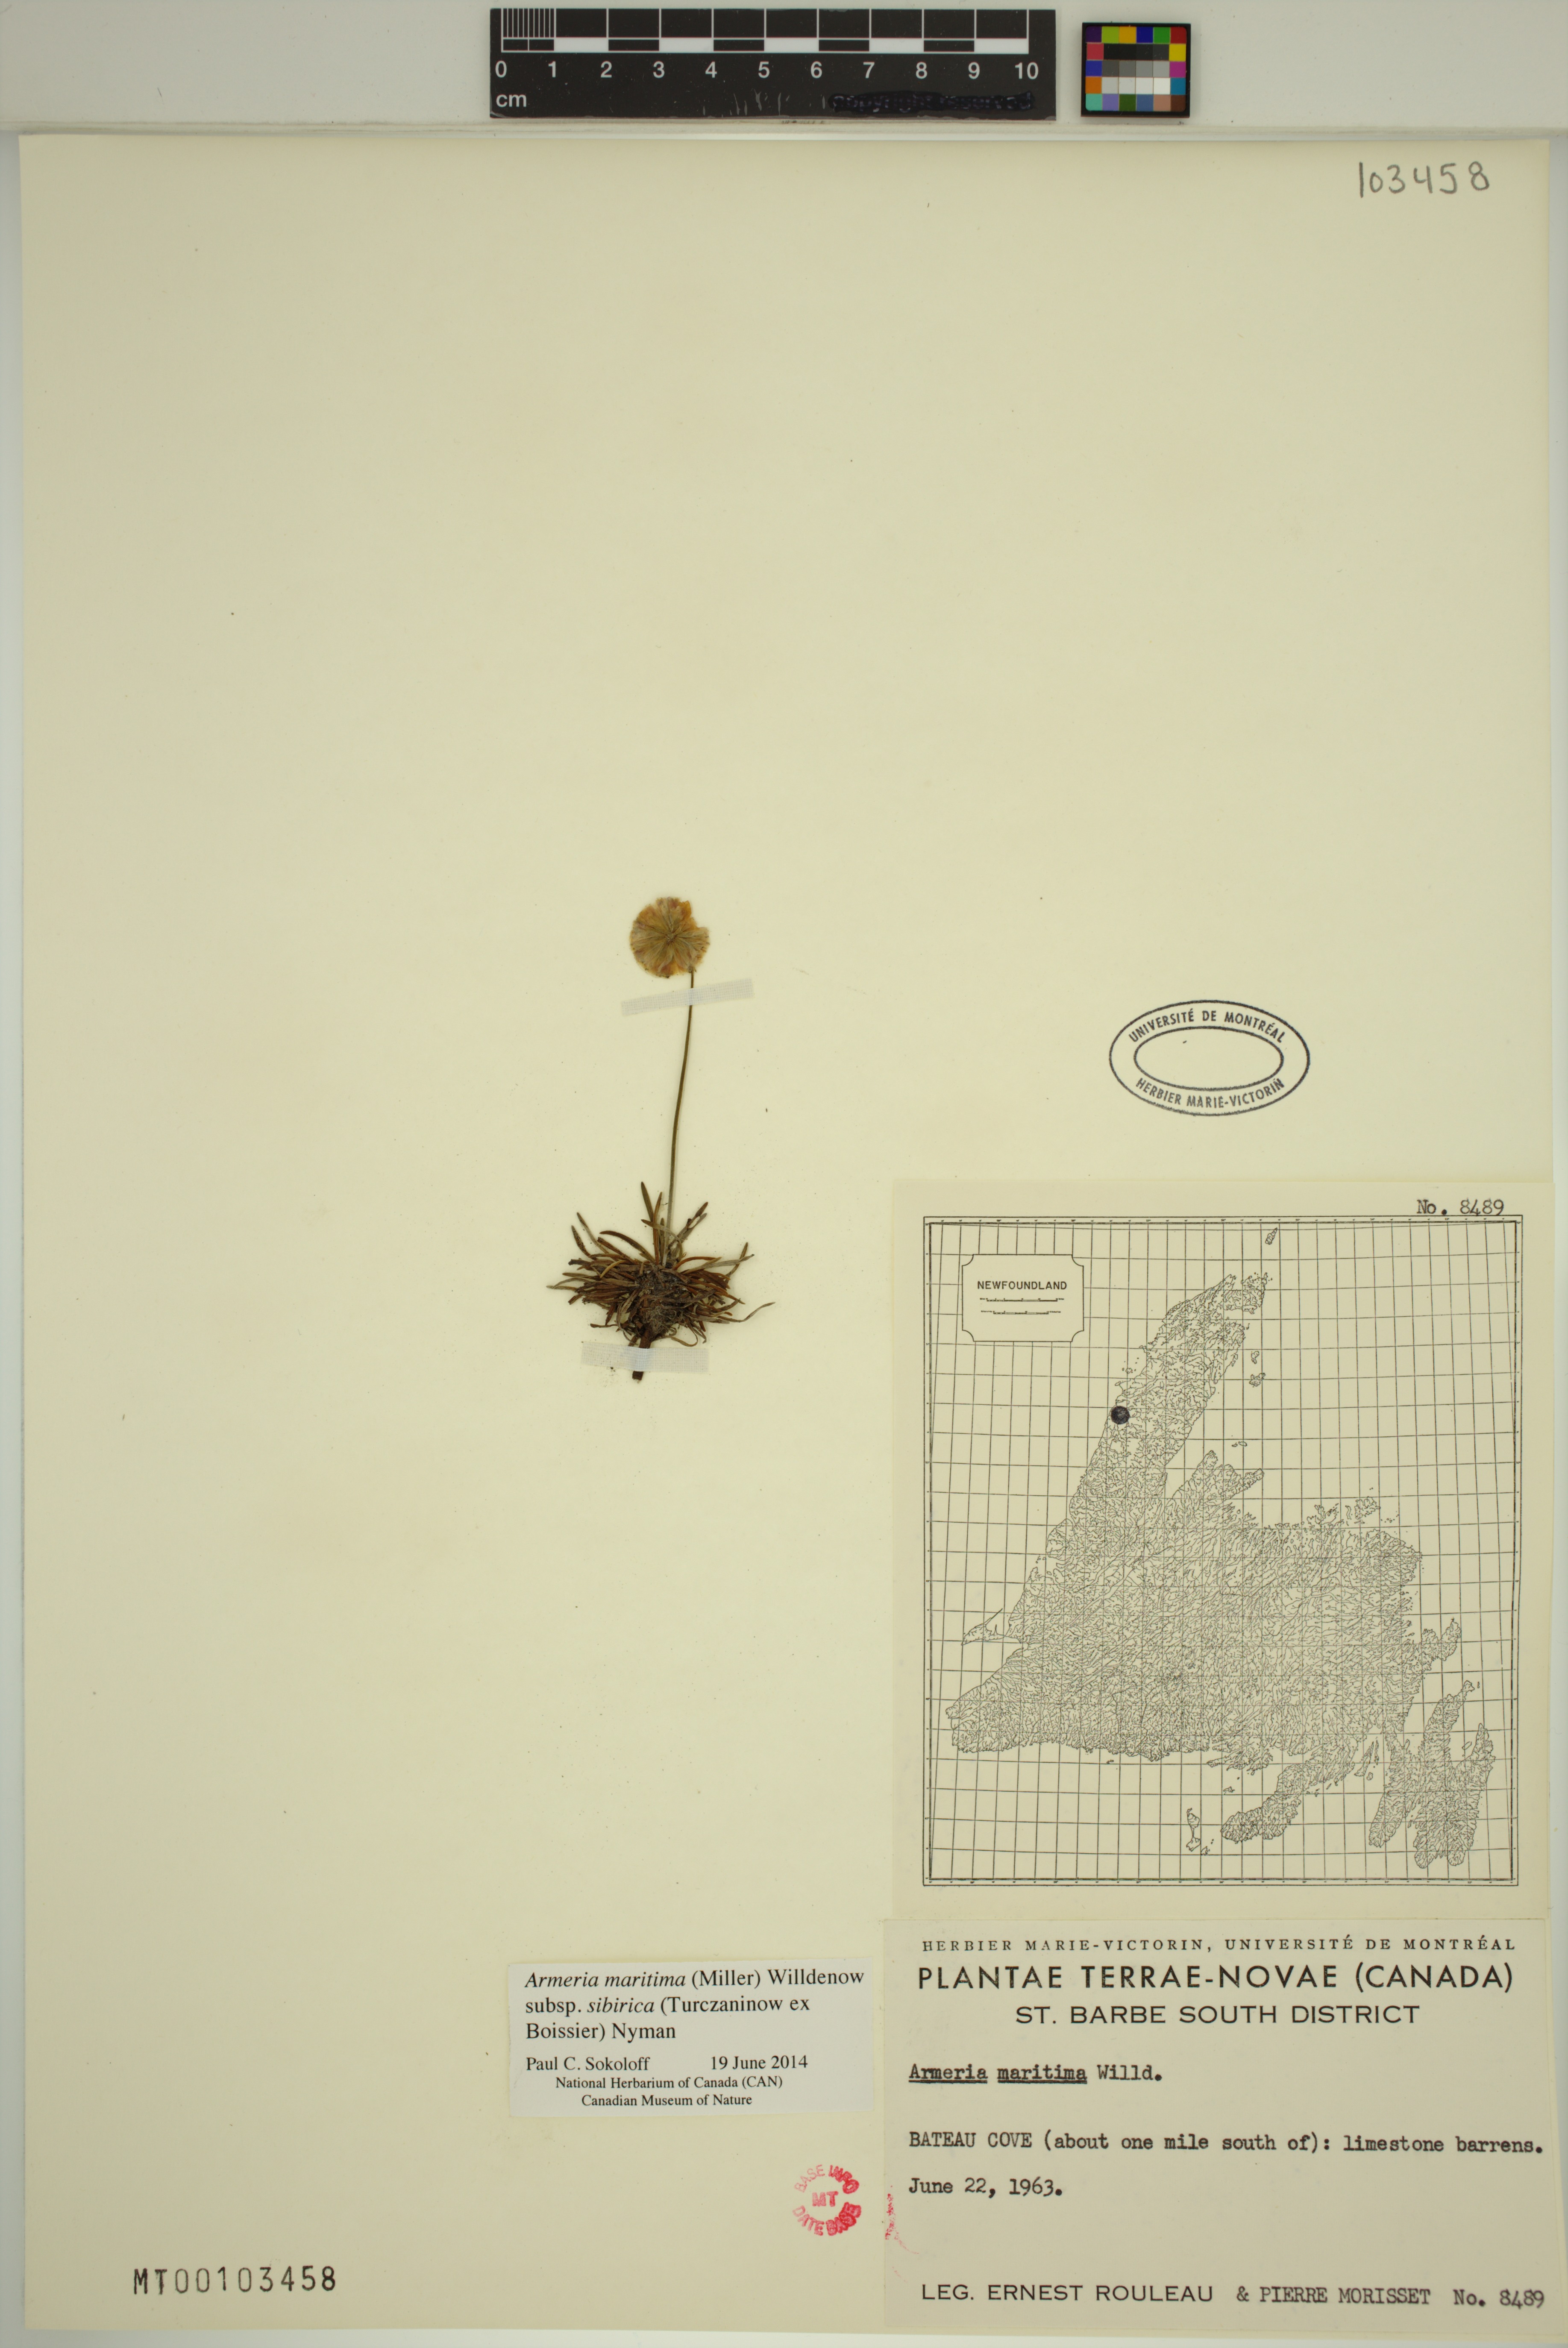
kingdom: Plantae
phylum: Tracheophyta
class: Magnoliopsida
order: Caryophyllales
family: Plumbaginaceae
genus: Armeria
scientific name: Armeria maritima
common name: Thrift
